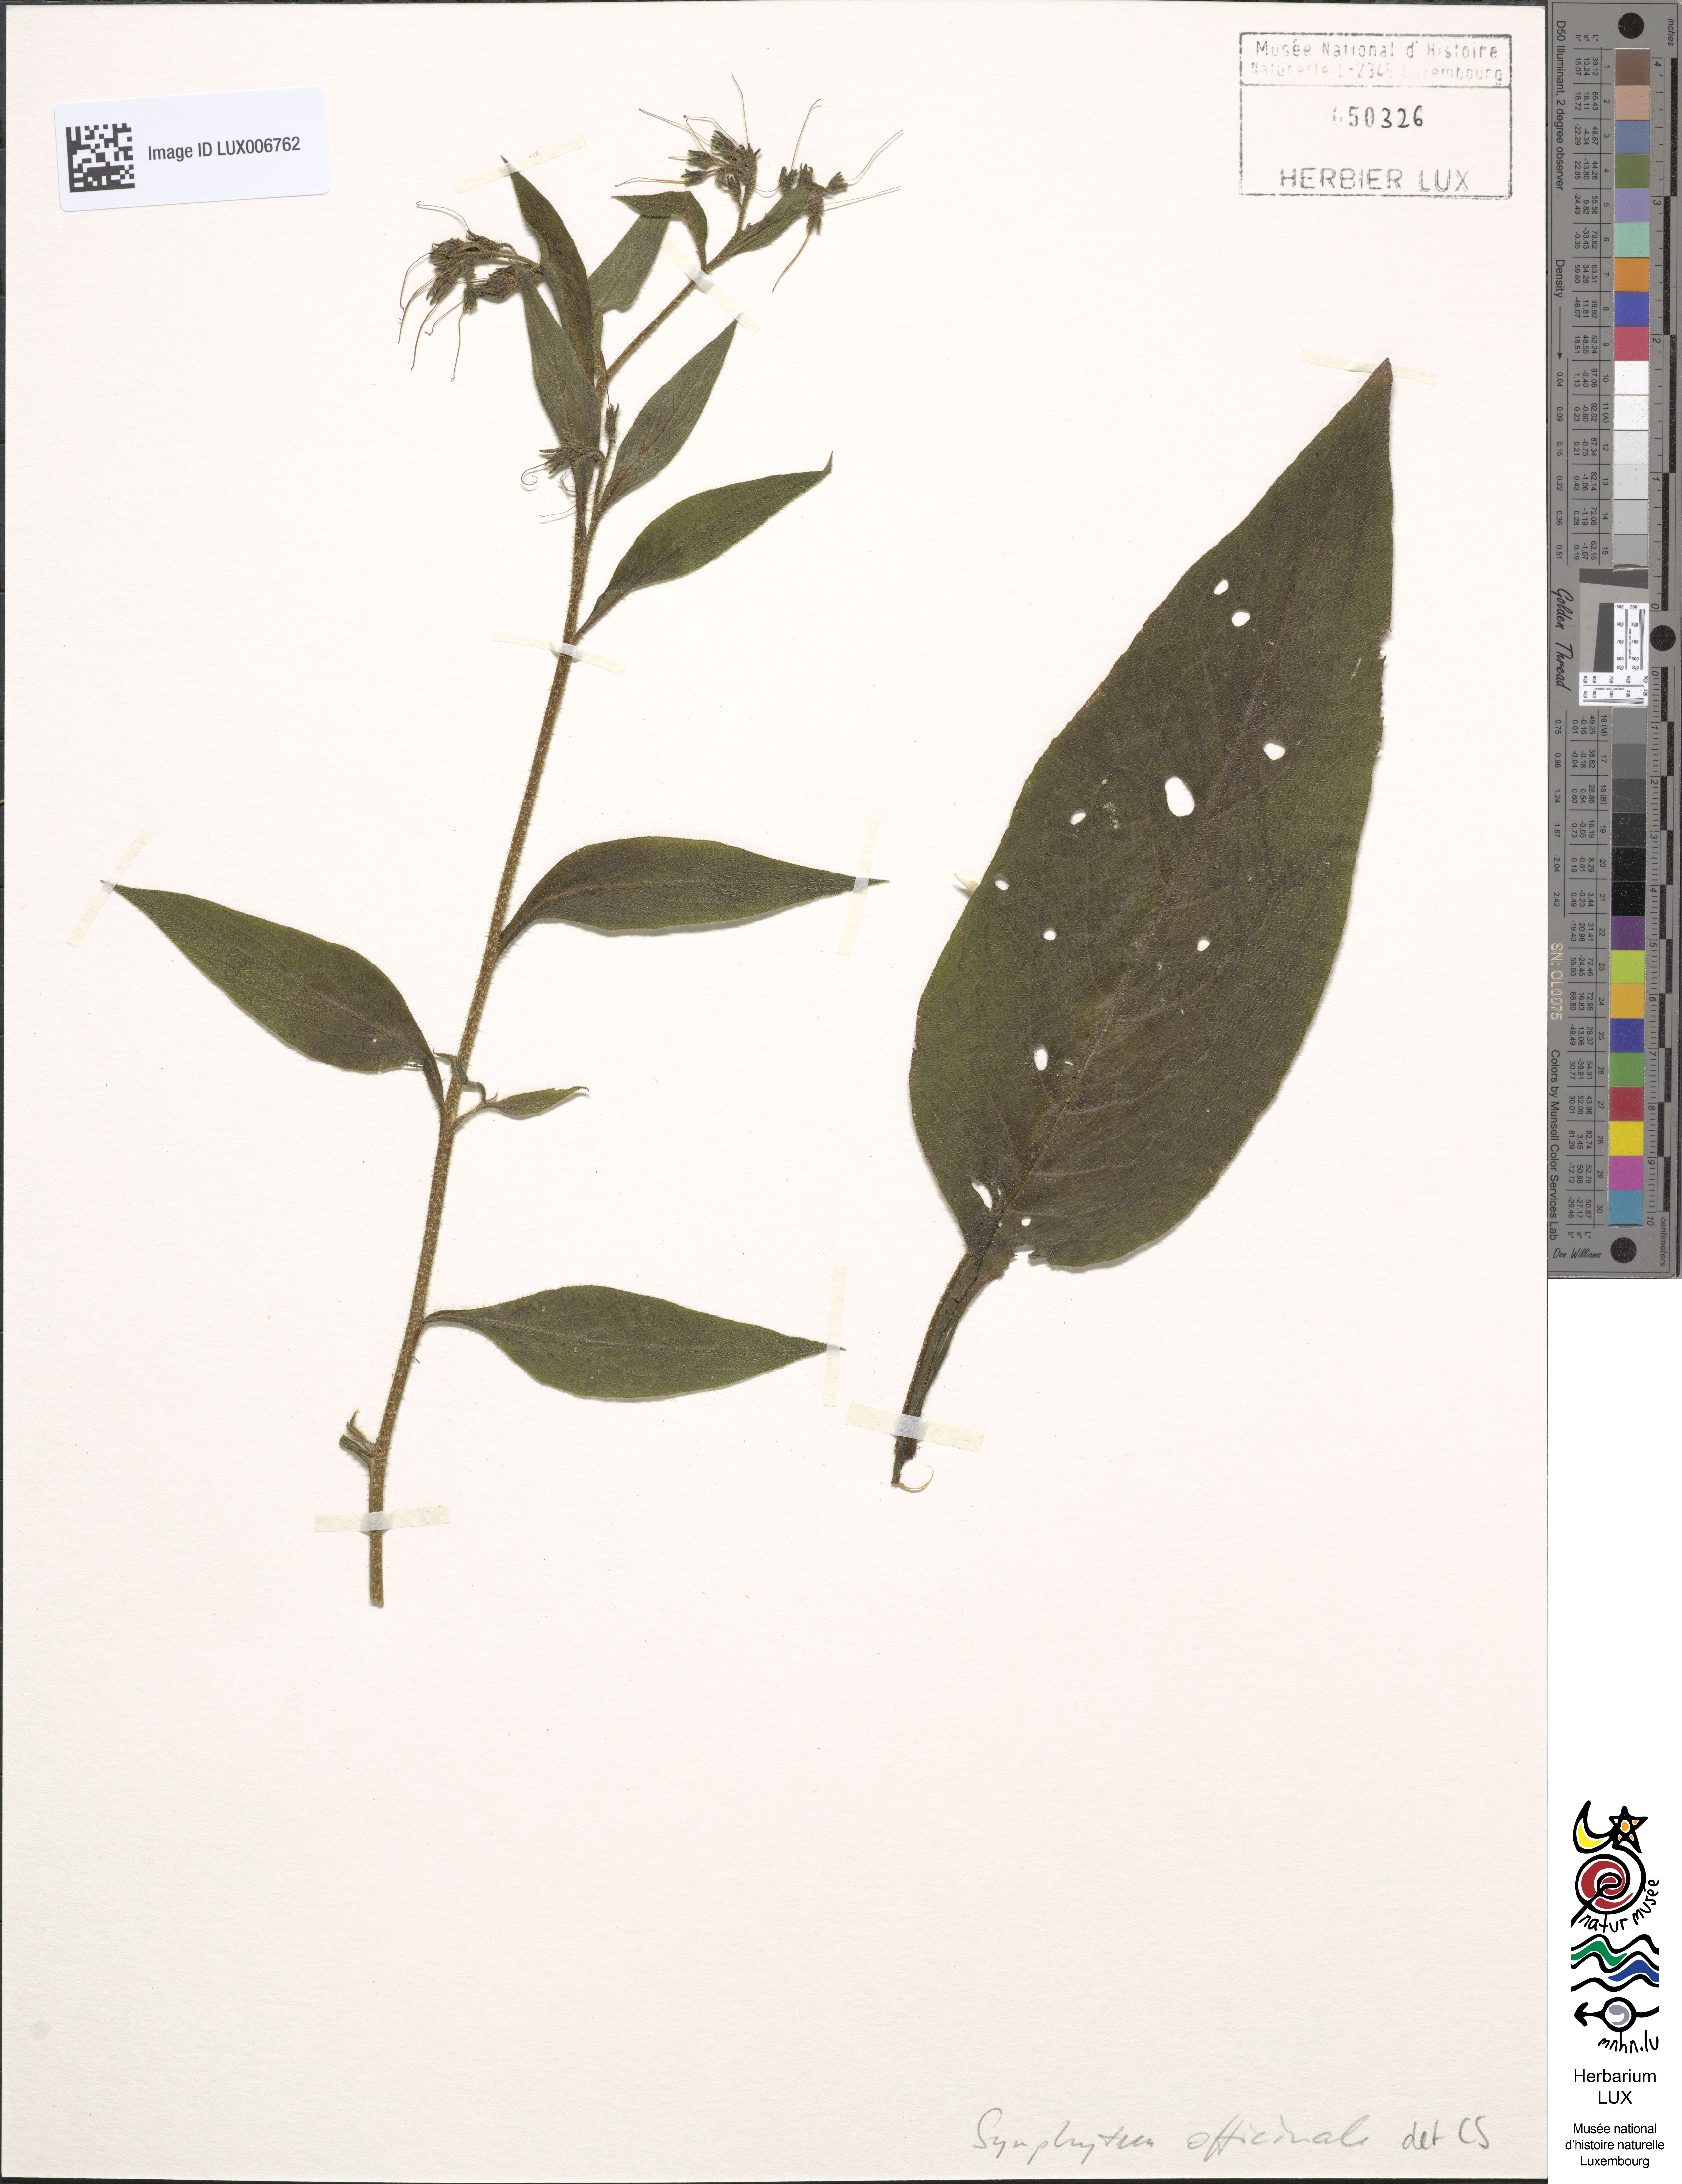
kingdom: Plantae
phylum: Tracheophyta
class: Magnoliopsida
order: Boraginales
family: Boraginaceae
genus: Symphytum
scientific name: Symphytum officinale
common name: Common comfrey
